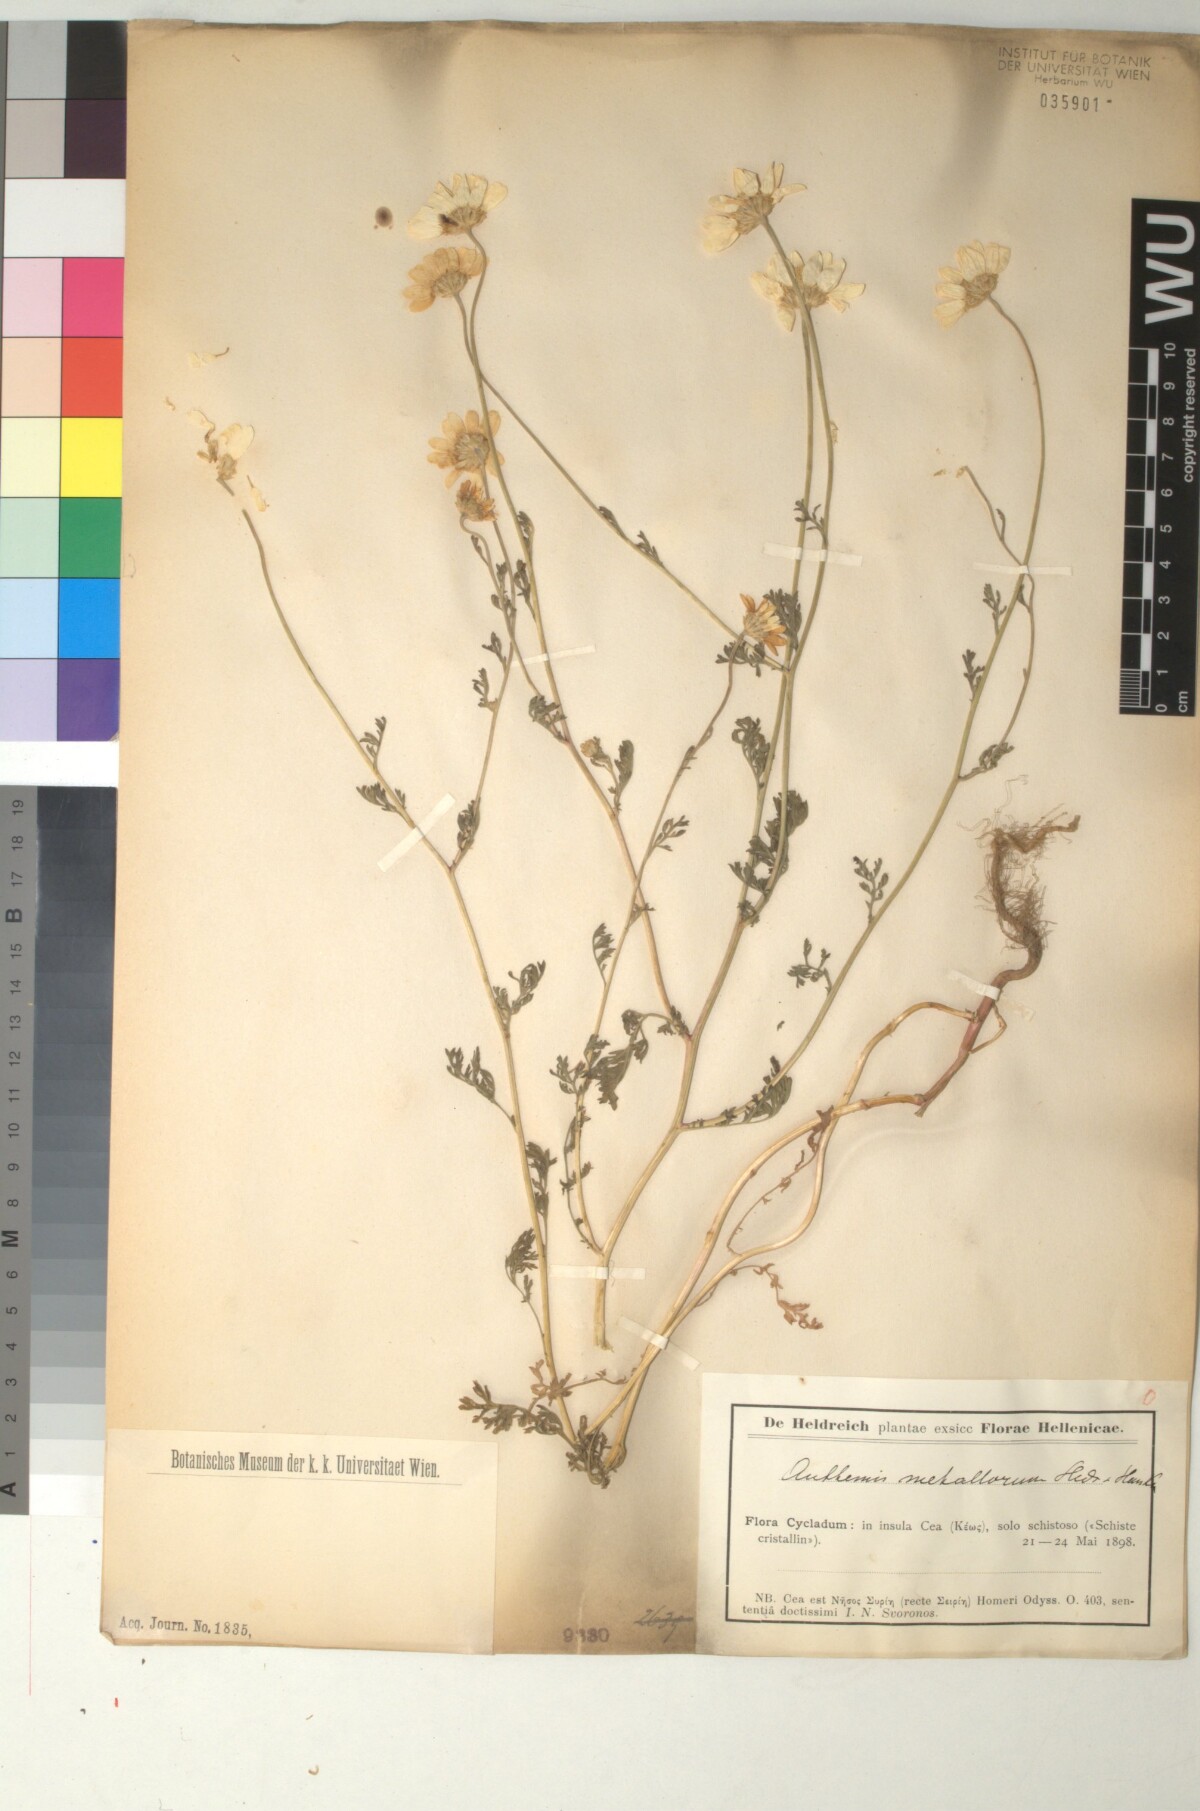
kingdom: Plantae
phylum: Tracheophyta
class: Magnoliopsida
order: Asterales
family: Asteraceae
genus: Anthemis
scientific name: Anthemis auriculata
